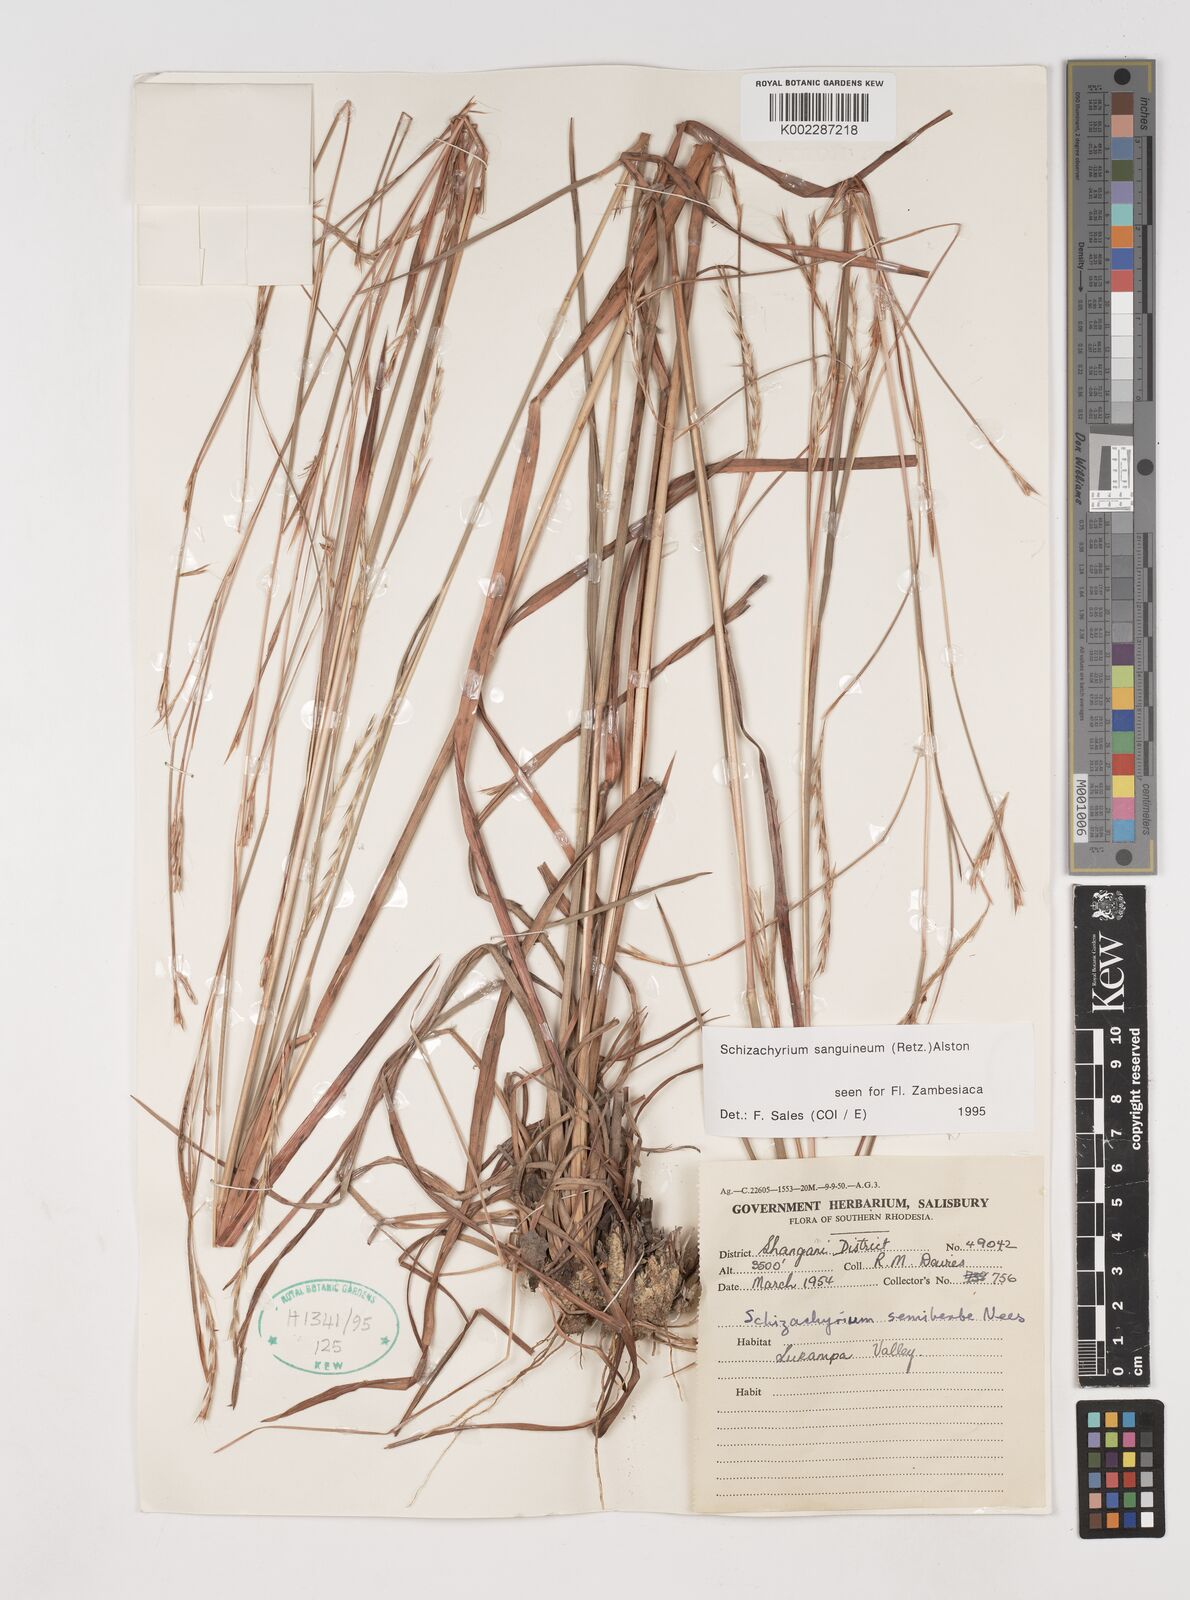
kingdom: Plantae
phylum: Tracheophyta
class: Liliopsida
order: Poales
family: Poaceae
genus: Schizachyrium
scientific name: Schizachyrium sanguineum
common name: Crimson bluestem
